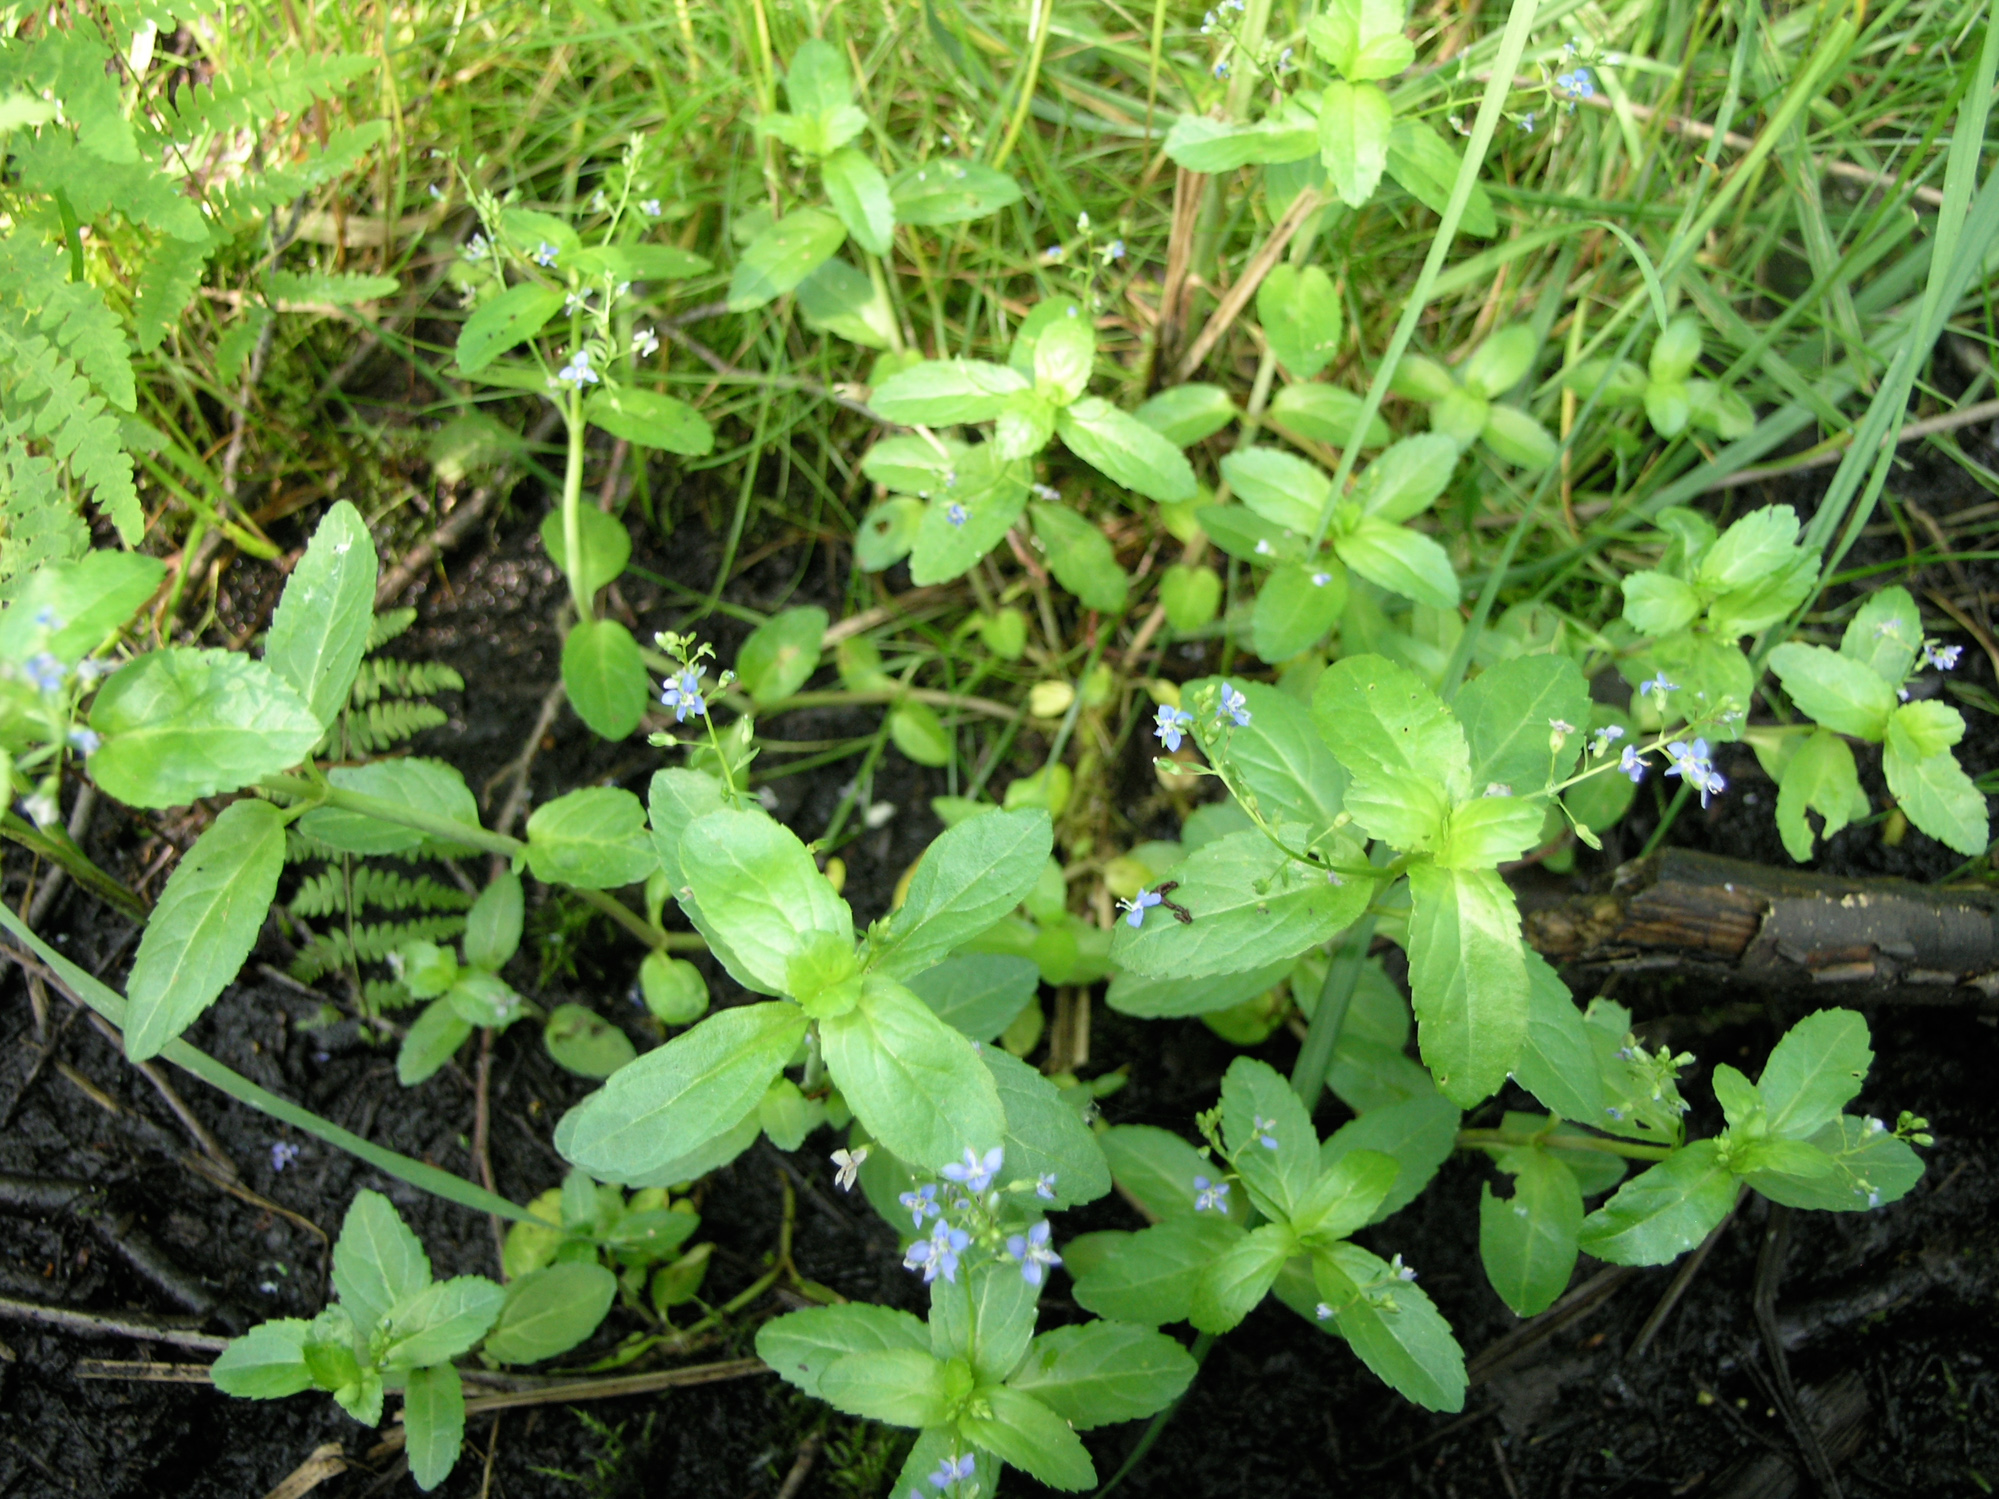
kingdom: Plantae
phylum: Tracheophyta
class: Magnoliopsida
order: Lamiales
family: Plantaginaceae
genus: Veronica
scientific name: Veronica beccabunga
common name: Brooklime
